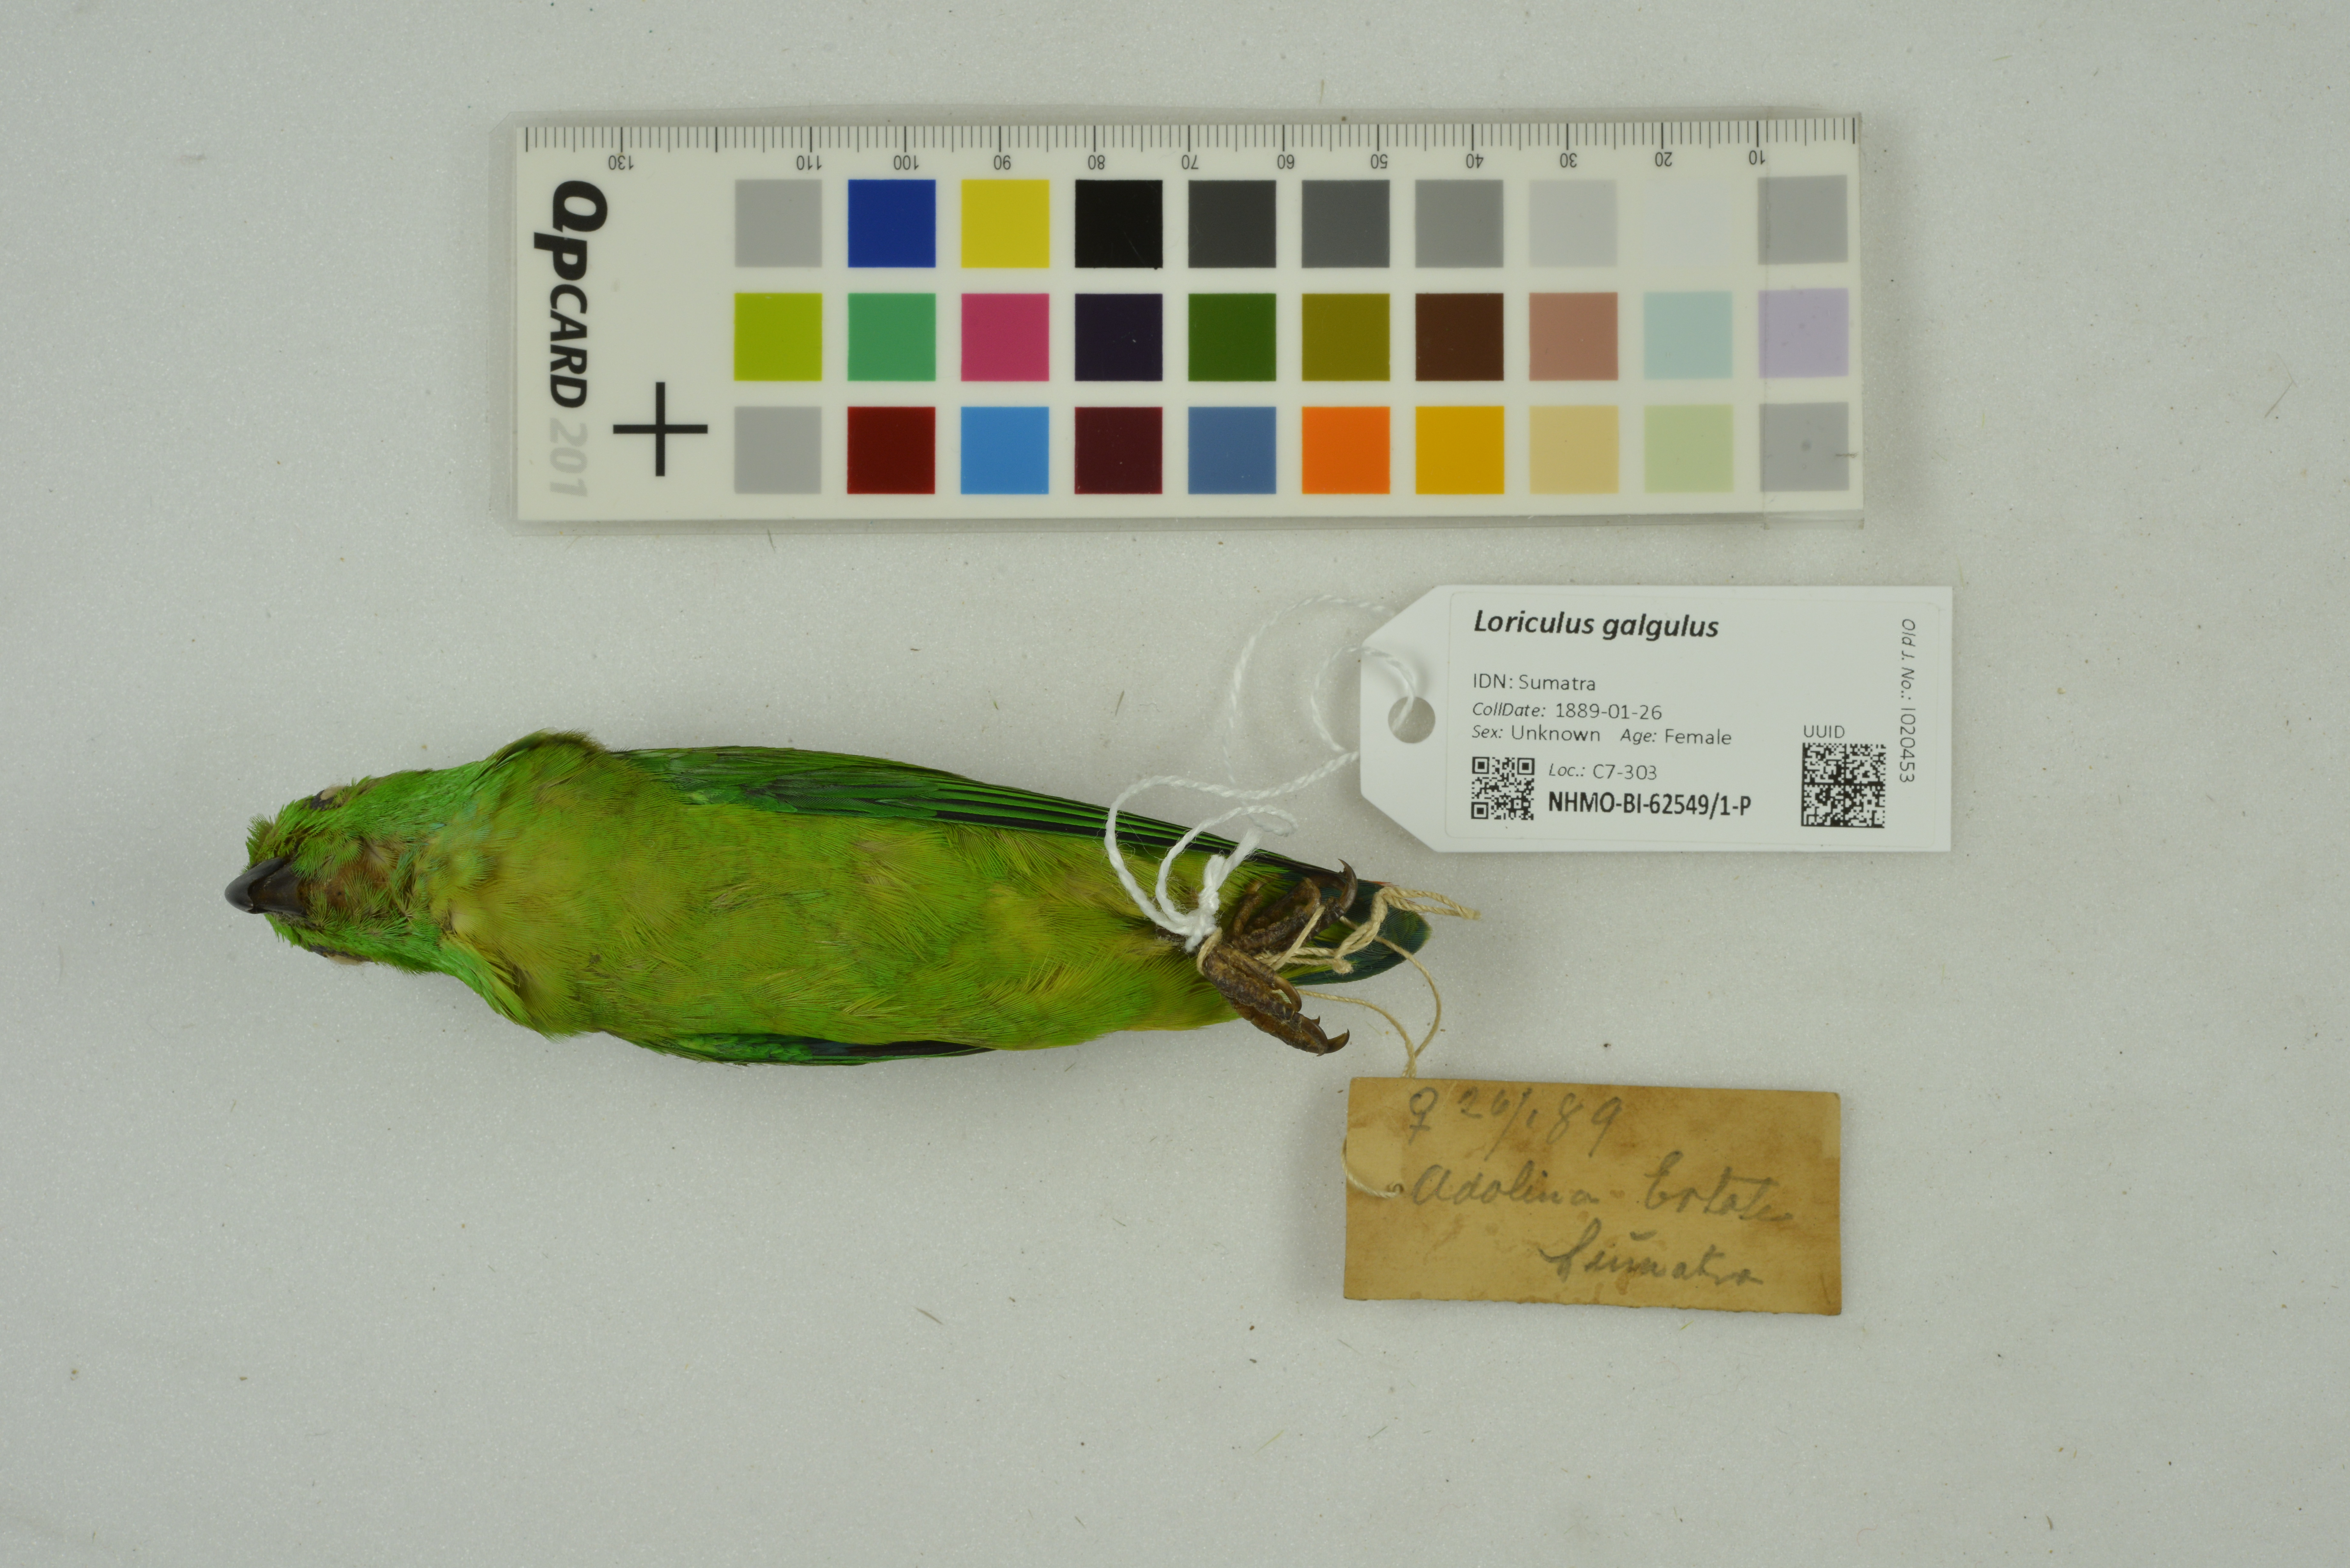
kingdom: Animalia
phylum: Chordata
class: Aves
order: Psittaciformes
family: Psittacidae
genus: Loriculus
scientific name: Loriculus galgulus
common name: Blue-crowned hanging parrot
